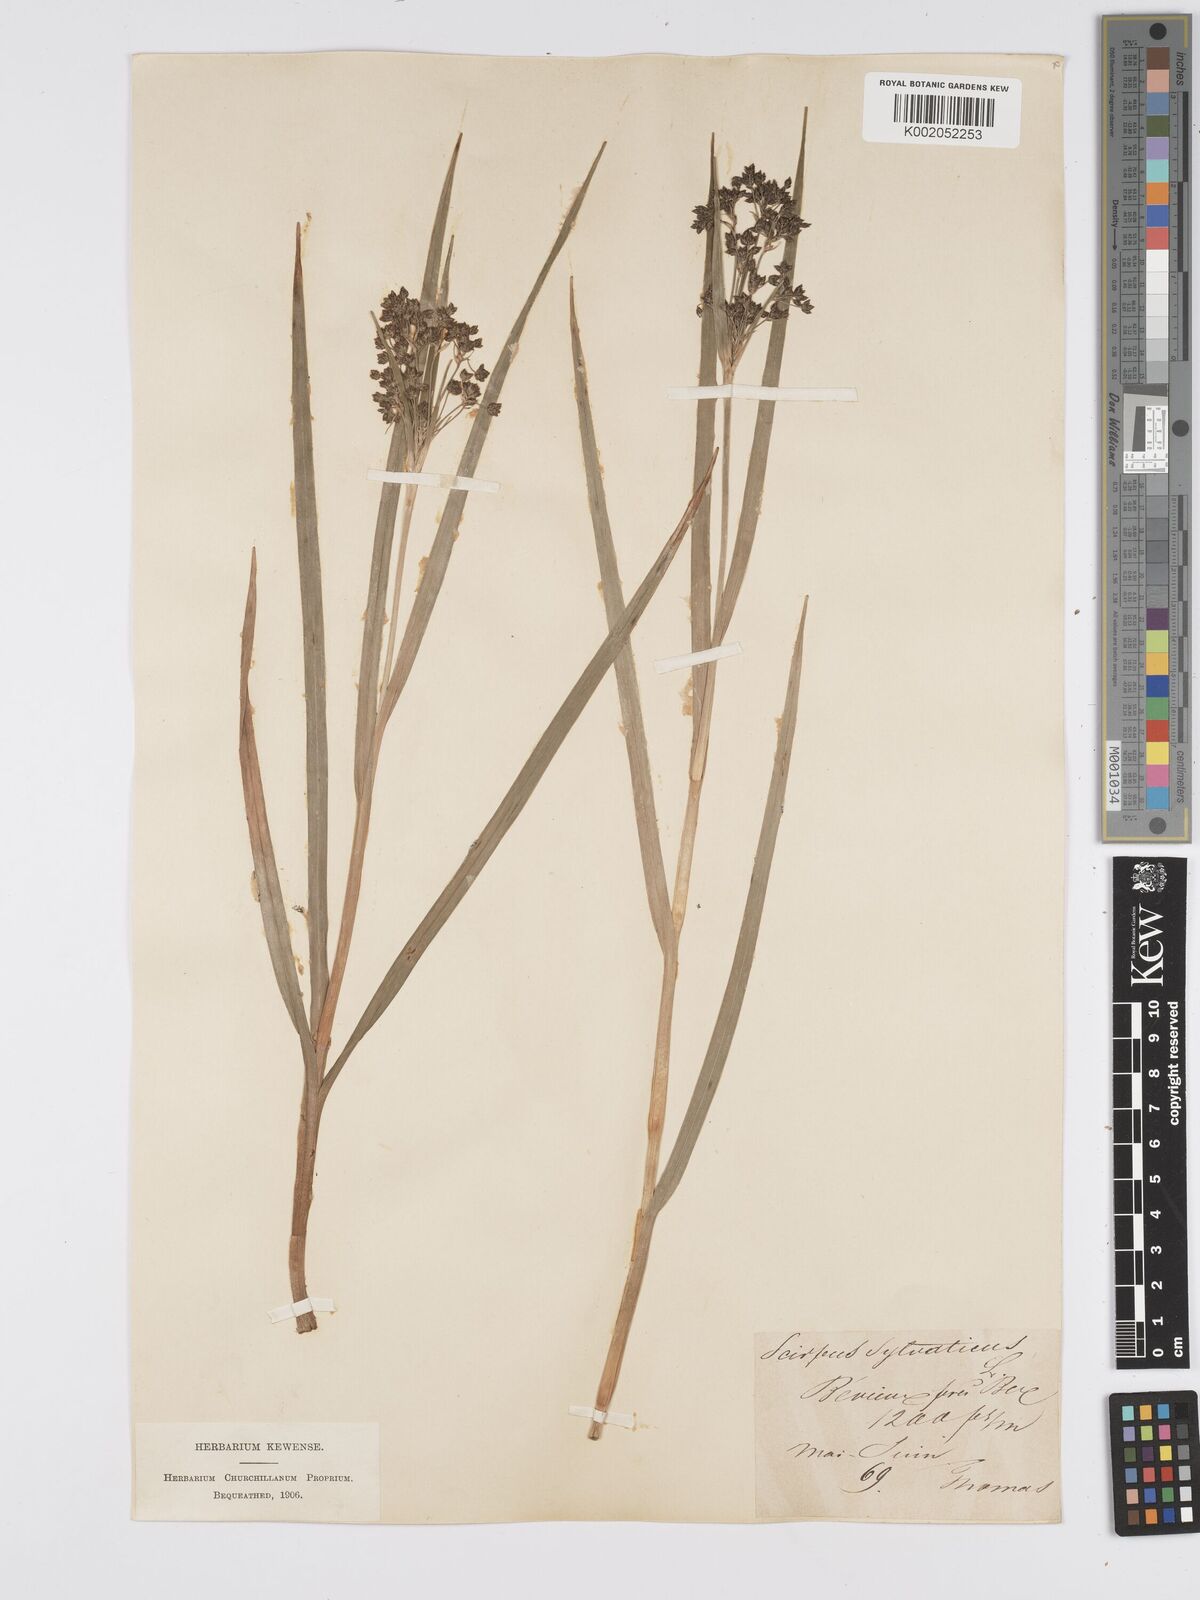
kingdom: Plantae
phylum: Tracheophyta
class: Liliopsida
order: Poales
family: Cyperaceae
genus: Scirpus
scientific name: Scirpus sylvaticus
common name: Wood club-rush
